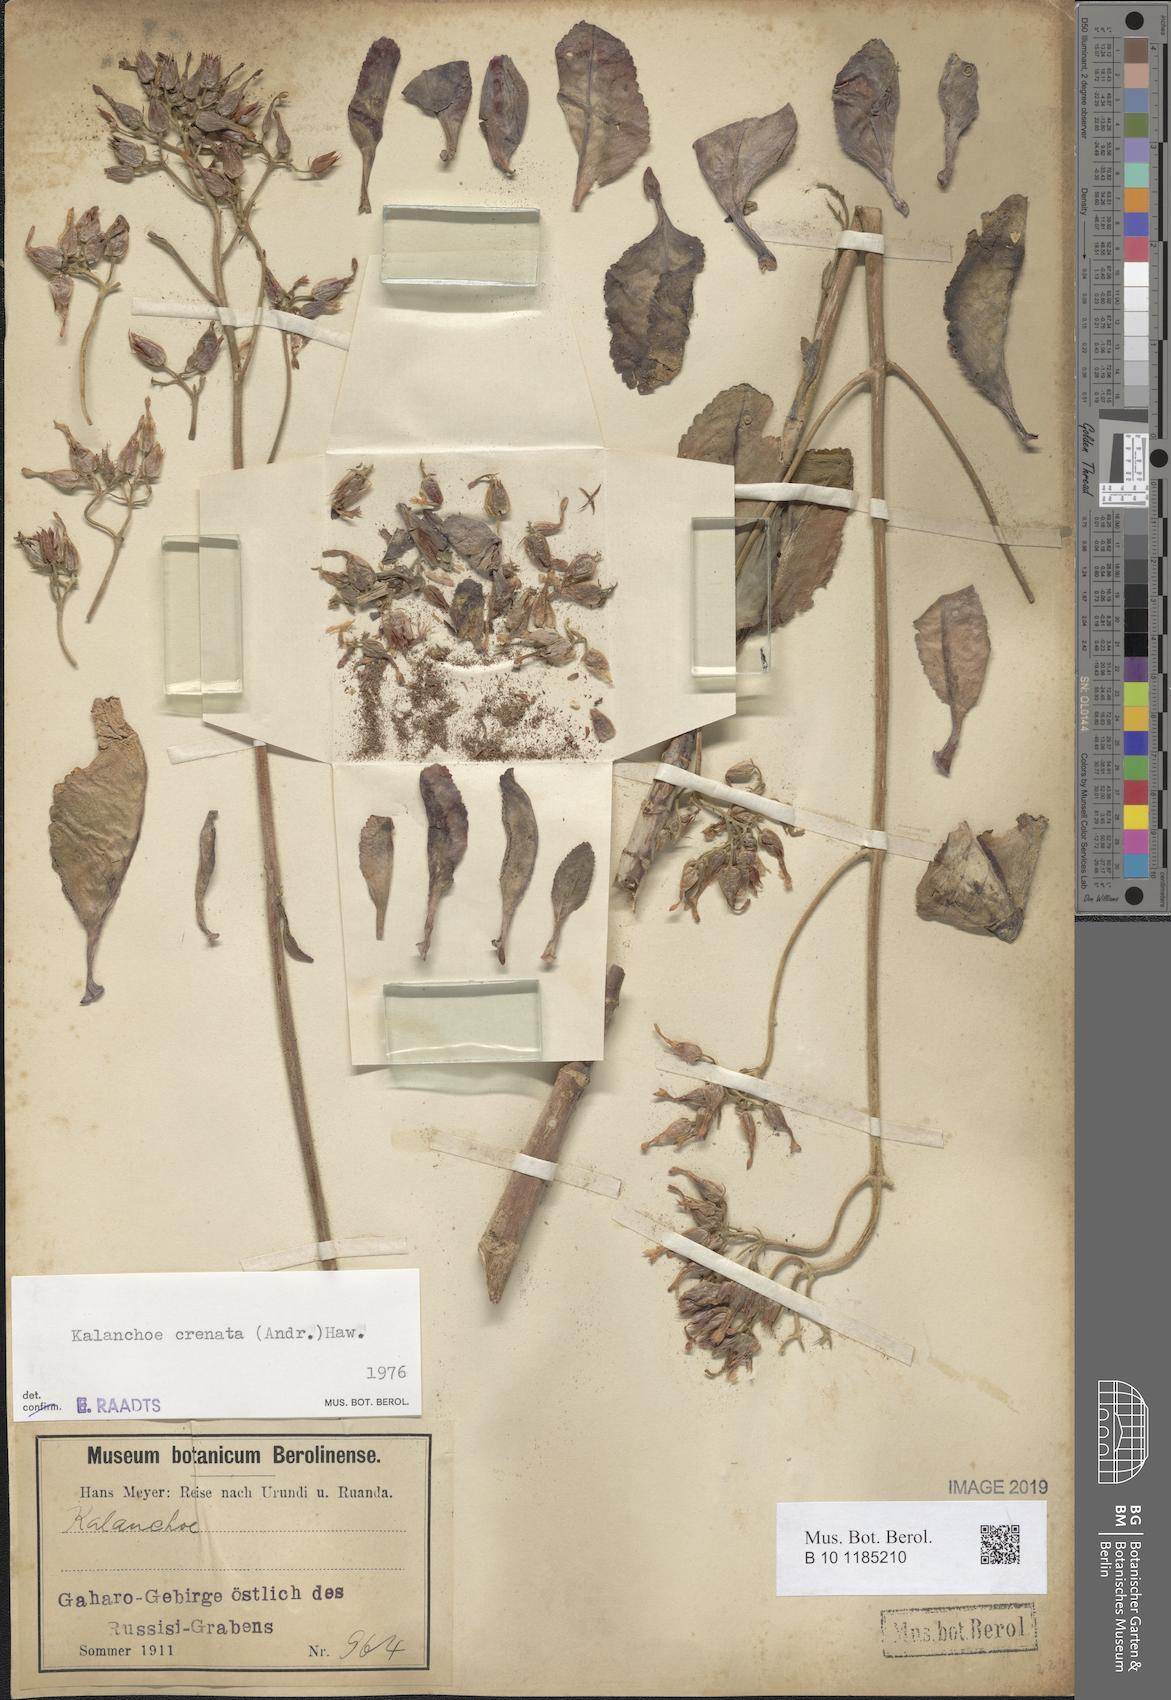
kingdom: Plantae
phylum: Tracheophyta
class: Magnoliopsida
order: Saxifragales
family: Crassulaceae
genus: Kalanchoe
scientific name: Kalanchoe crenata
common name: Neverdie
